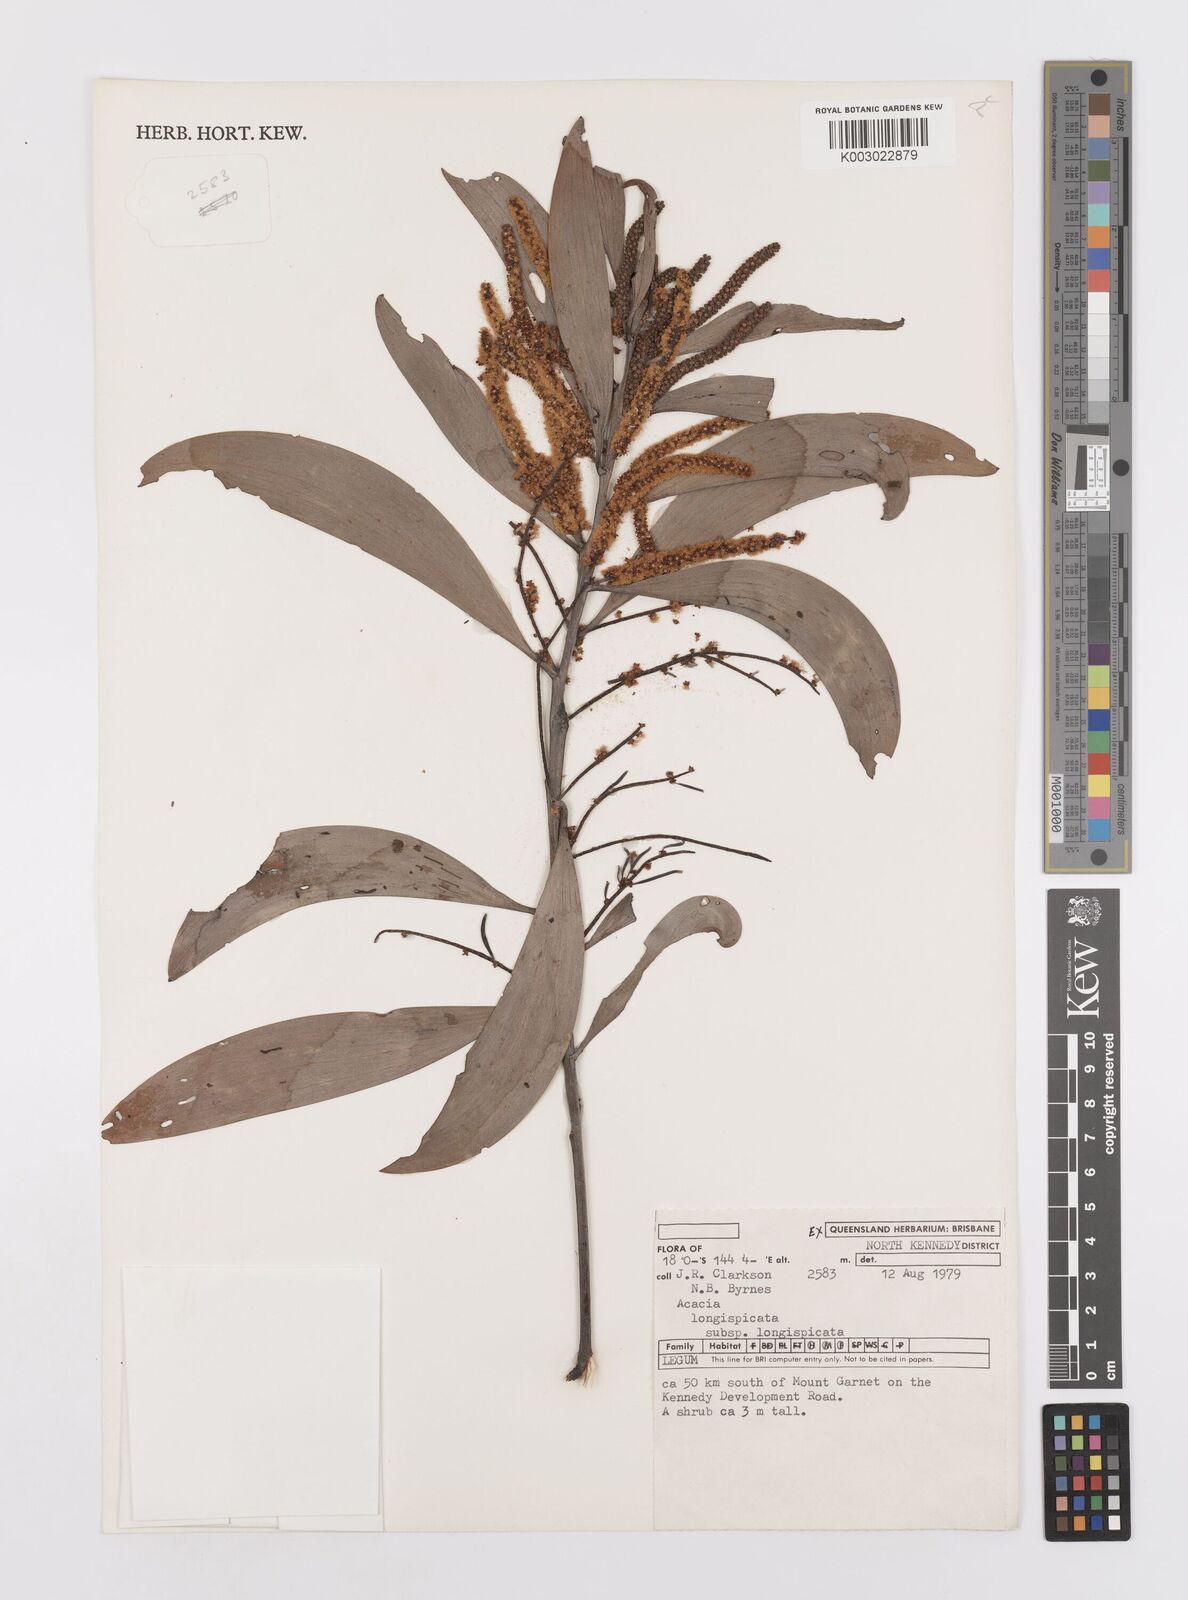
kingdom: Plantae
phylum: Tracheophyta
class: Magnoliopsida
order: Fabales
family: Fabaceae
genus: Acacia
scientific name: Acacia longispicata
